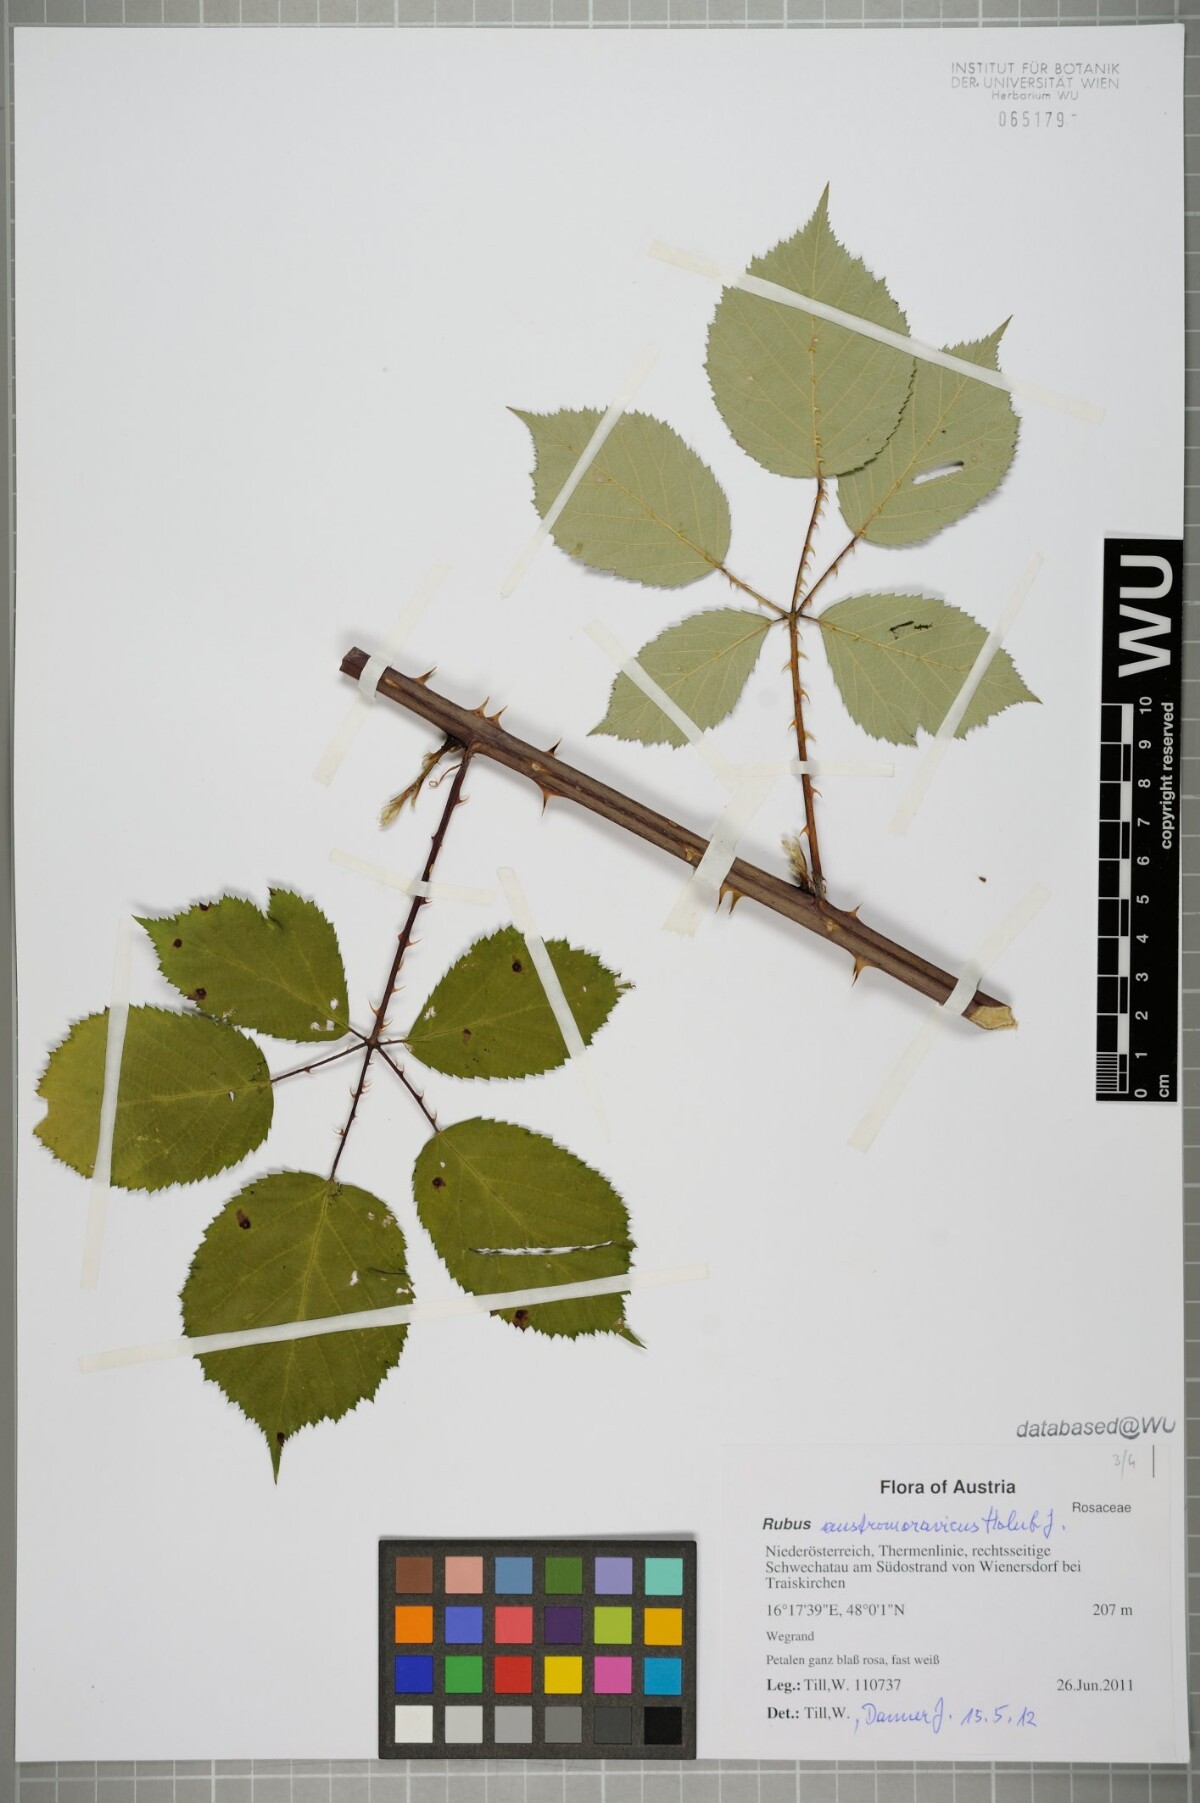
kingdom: Plantae
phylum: Tracheophyta
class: Magnoliopsida
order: Rosales
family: Rosaceae
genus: Rubus
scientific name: Rubus austromoravicus
